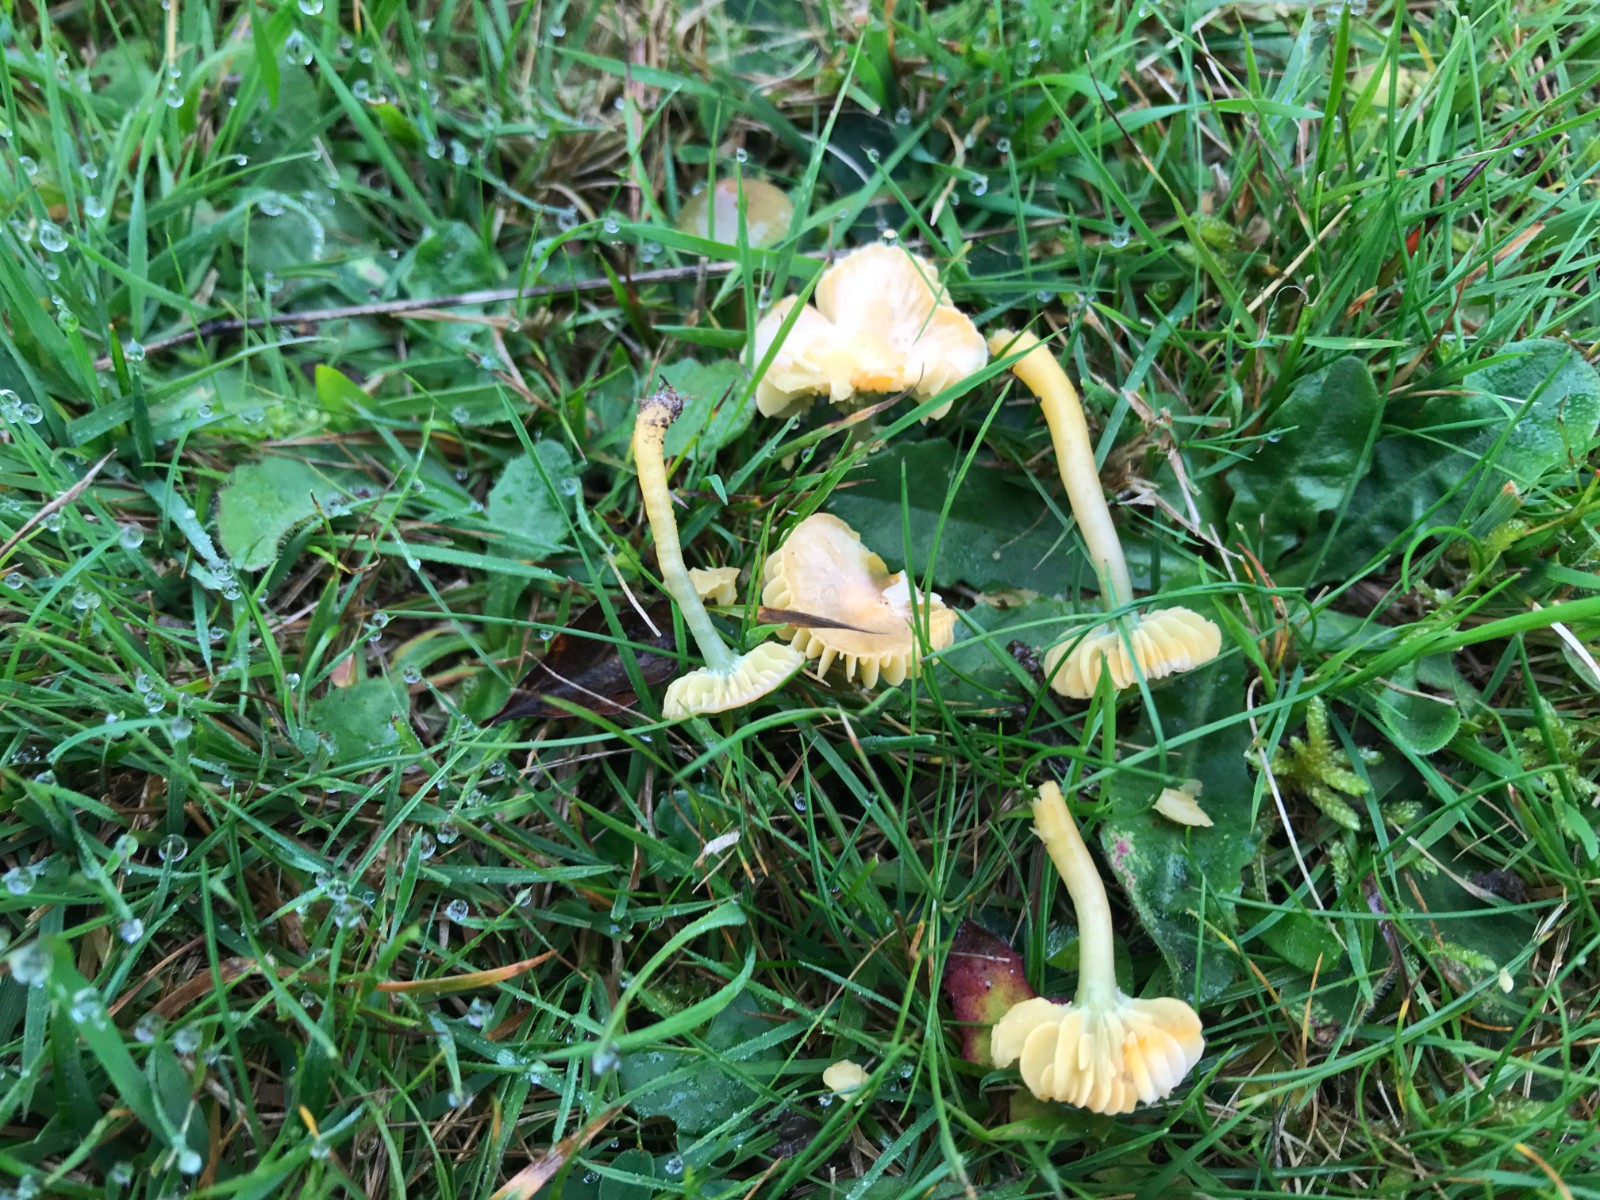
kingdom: Fungi
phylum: Basidiomycota
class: Agaricomycetes
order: Agaricales
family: Hygrophoraceae
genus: Gliophorus
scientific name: Gliophorus psittacinus
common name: papegøje-vokshat
